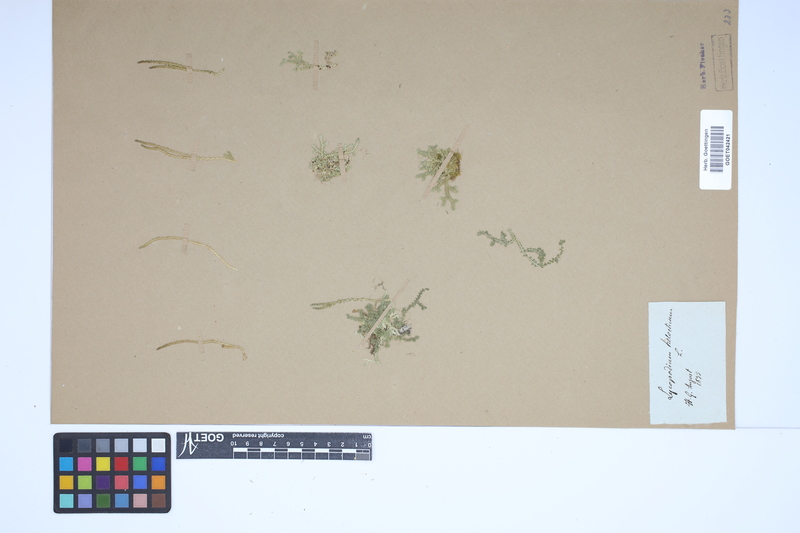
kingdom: Plantae
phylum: Tracheophyta
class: Lycopodiopsida
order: Selaginellales
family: Selaginellaceae
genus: Selaginella
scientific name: Selaginella helvetica
